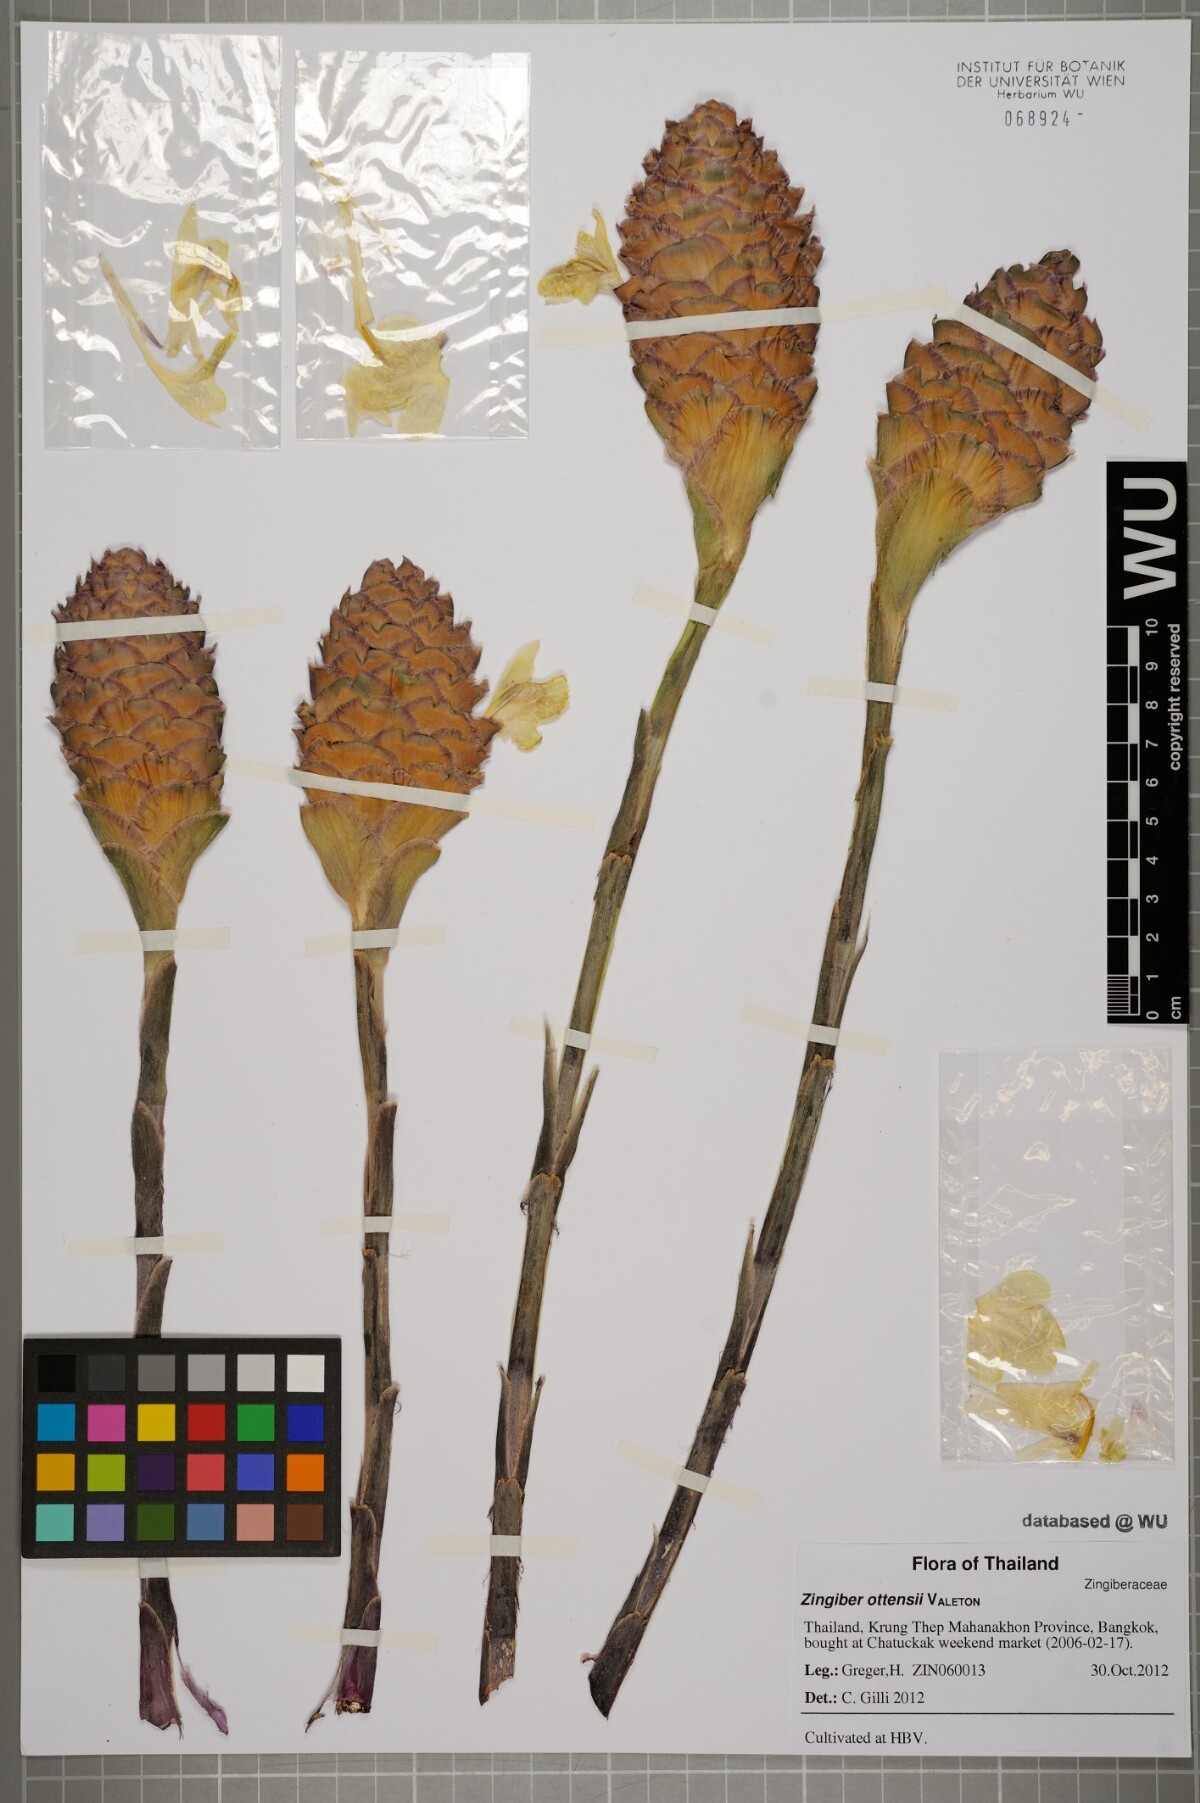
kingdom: Plantae
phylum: Tracheophyta
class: Liliopsida
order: Zingiberales
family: Zingiberaceae
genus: Zingiber
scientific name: Zingiber ottensii
